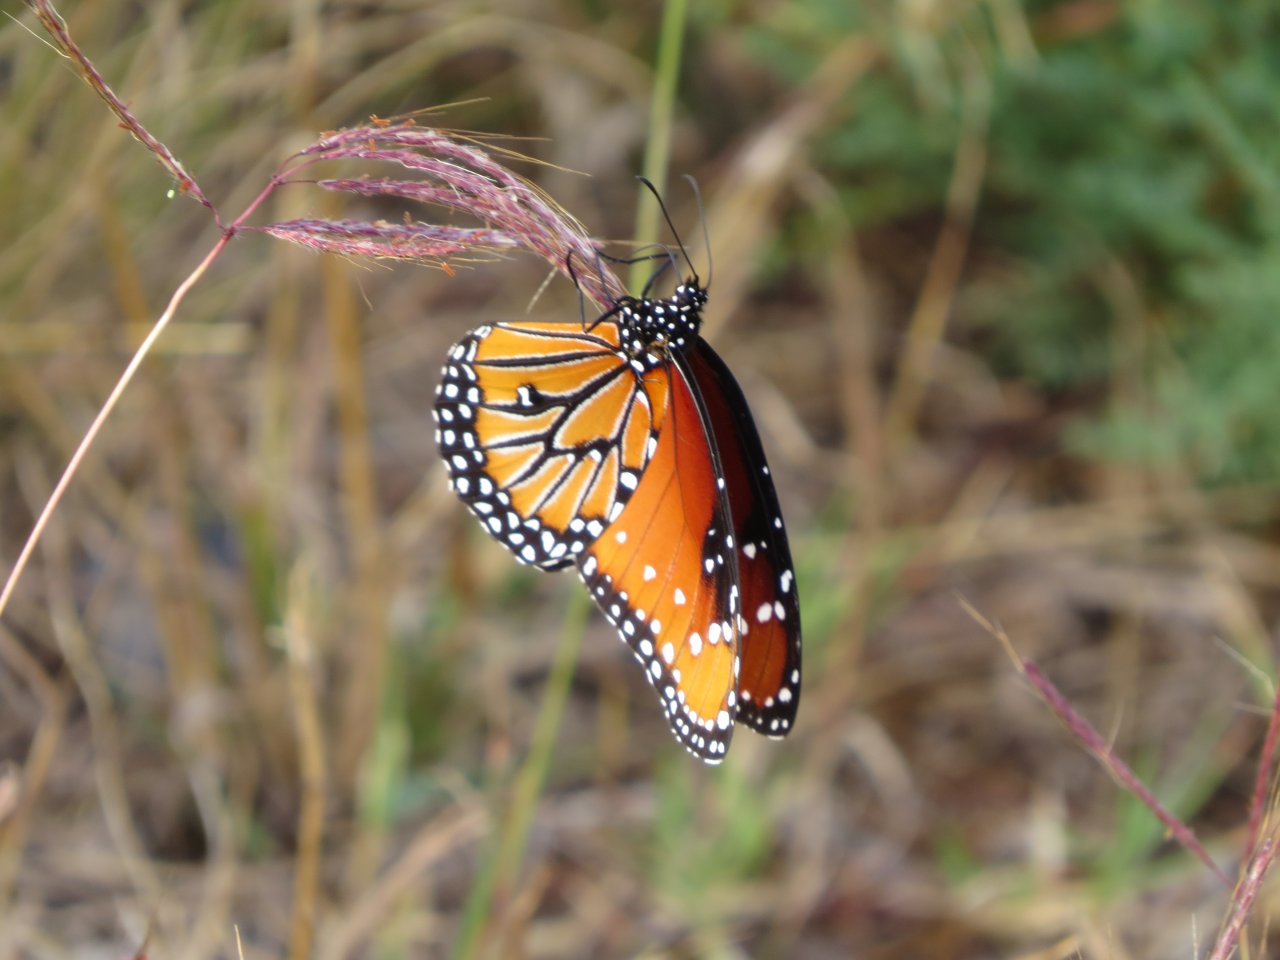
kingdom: Animalia
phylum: Arthropoda
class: Insecta
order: Lepidoptera
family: Nymphalidae
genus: Danaus
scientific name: Danaus gilippus
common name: Queen
